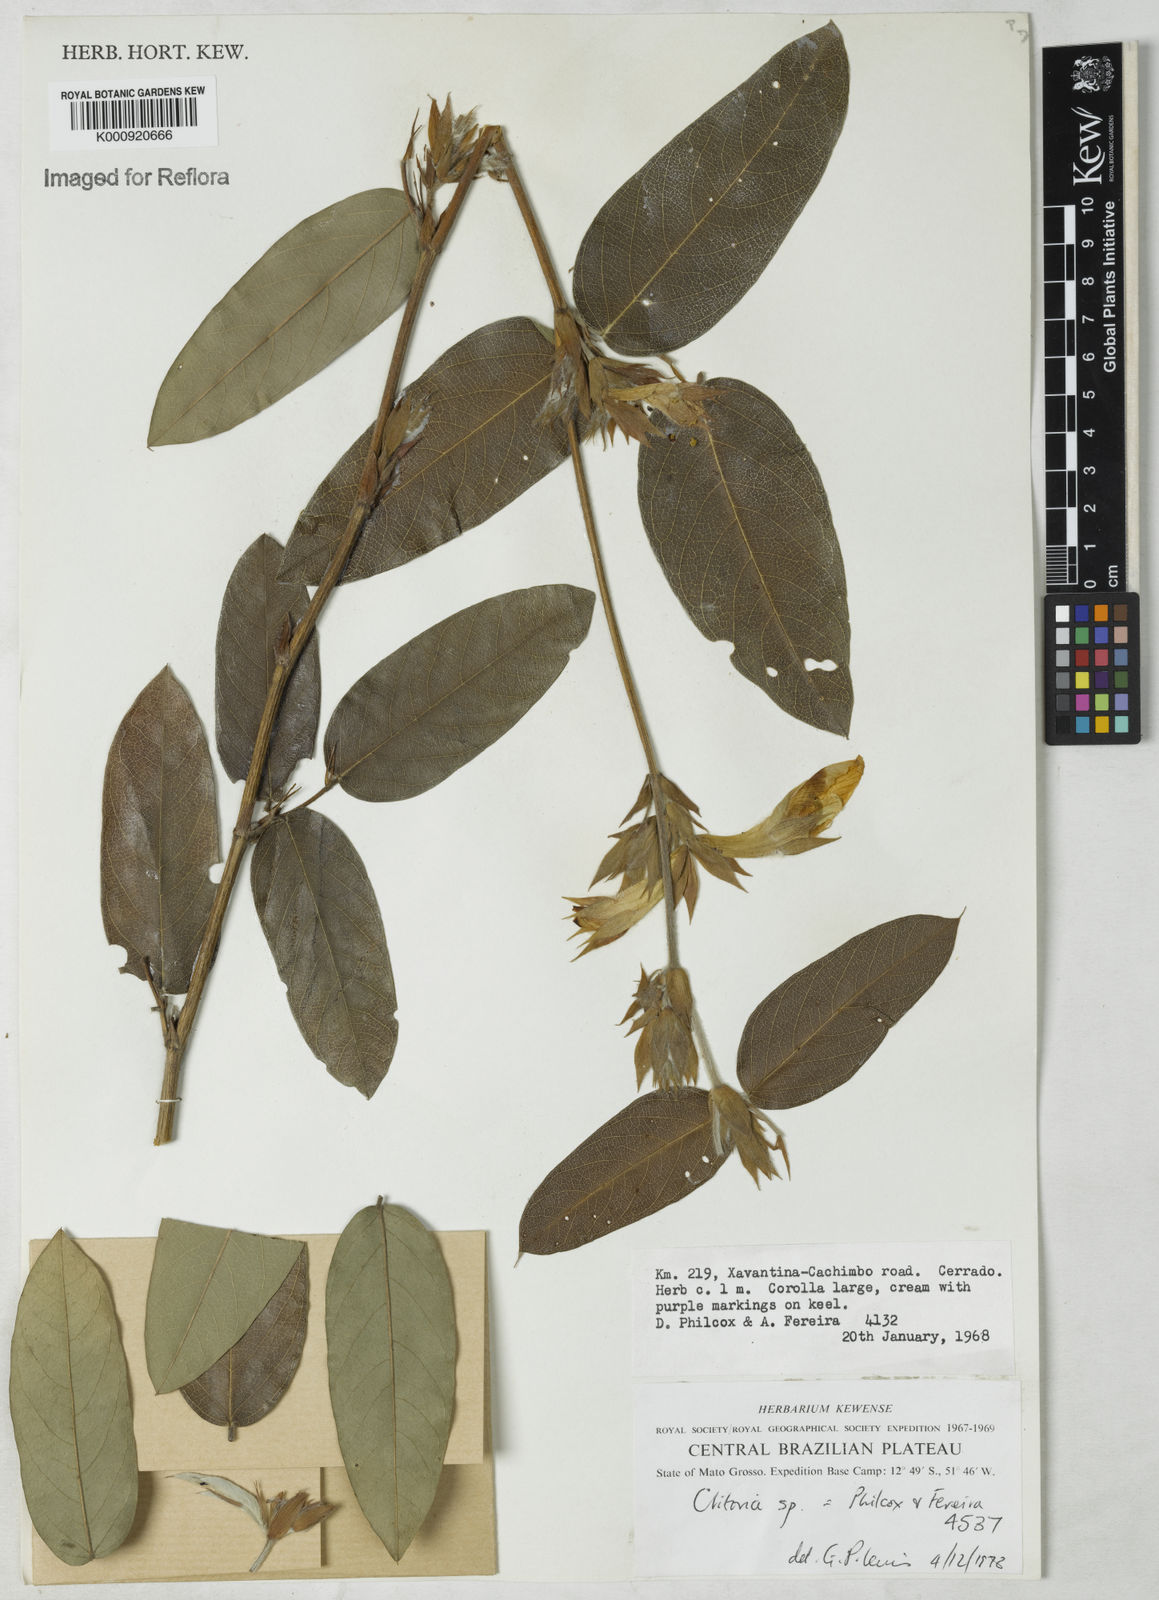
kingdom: Plantae
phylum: Tracheophyta
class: Magnoliopsida
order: Fabales
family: Fabaceae
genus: Clitoria
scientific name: Clitoria
